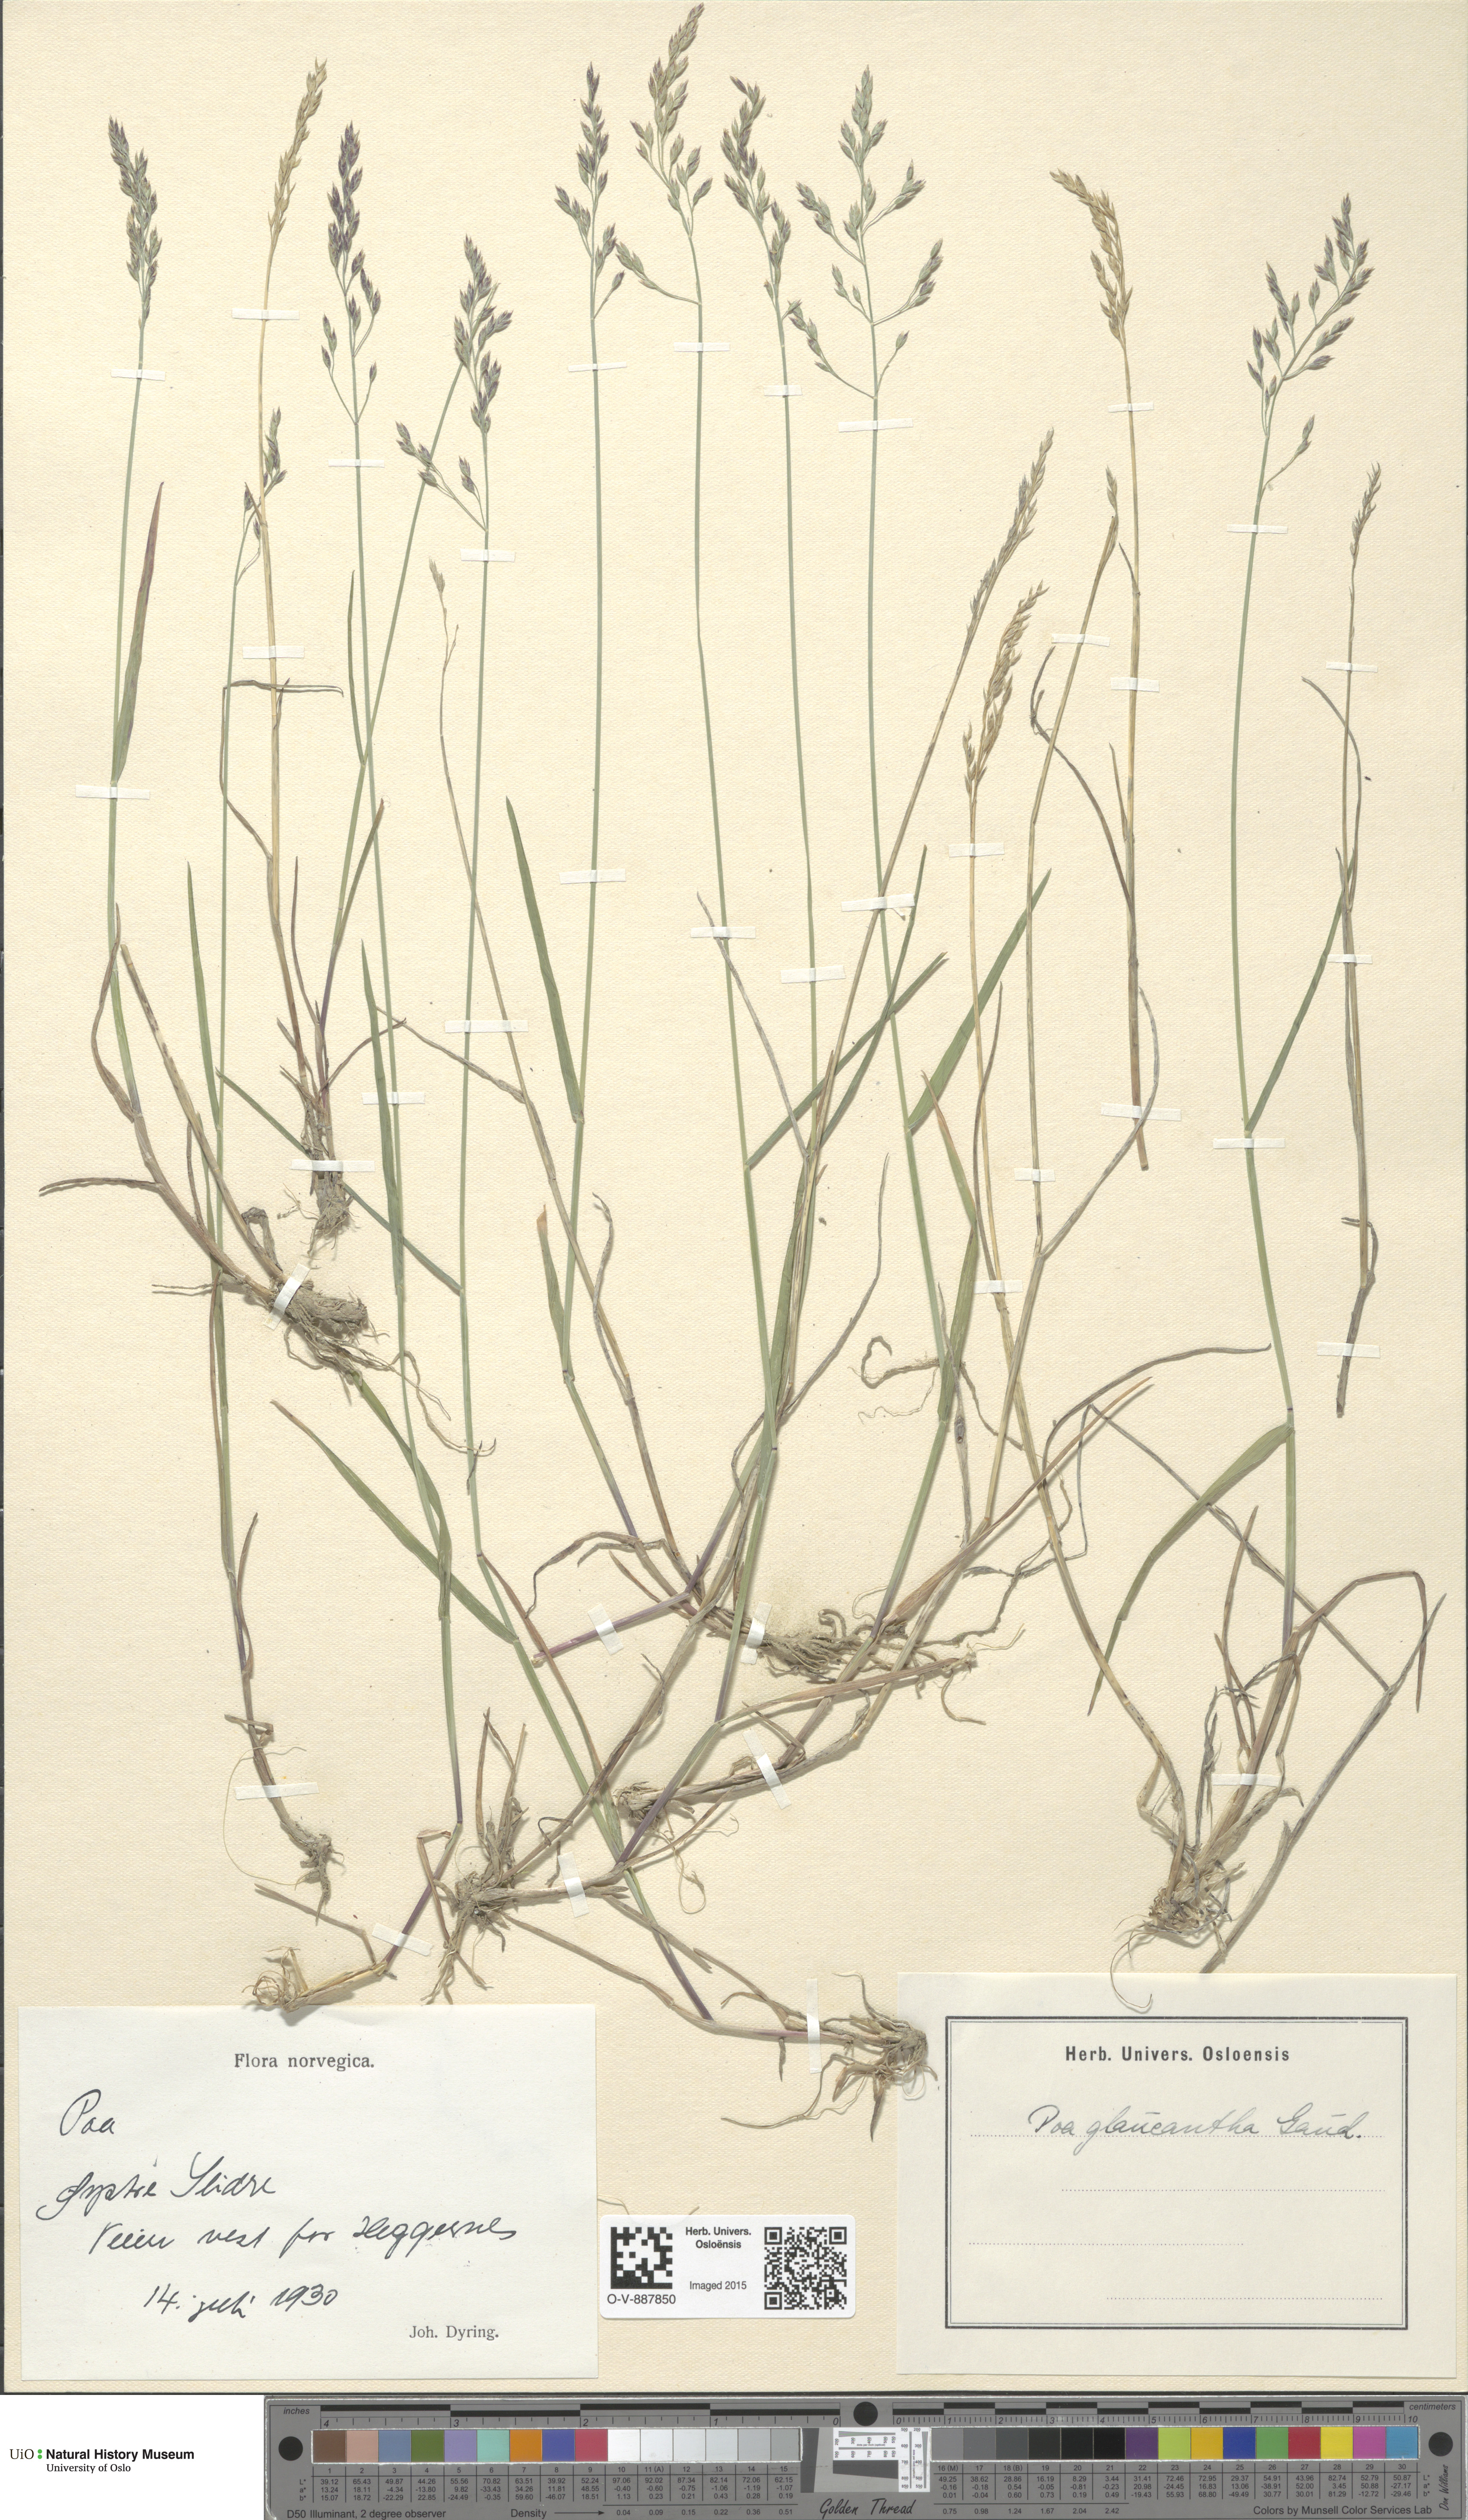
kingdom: Plantae
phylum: Tracheophyta
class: Liliopsida
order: Poales
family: Poaceae
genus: Poa
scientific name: Poa nemoralis
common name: Wood bluegrass
